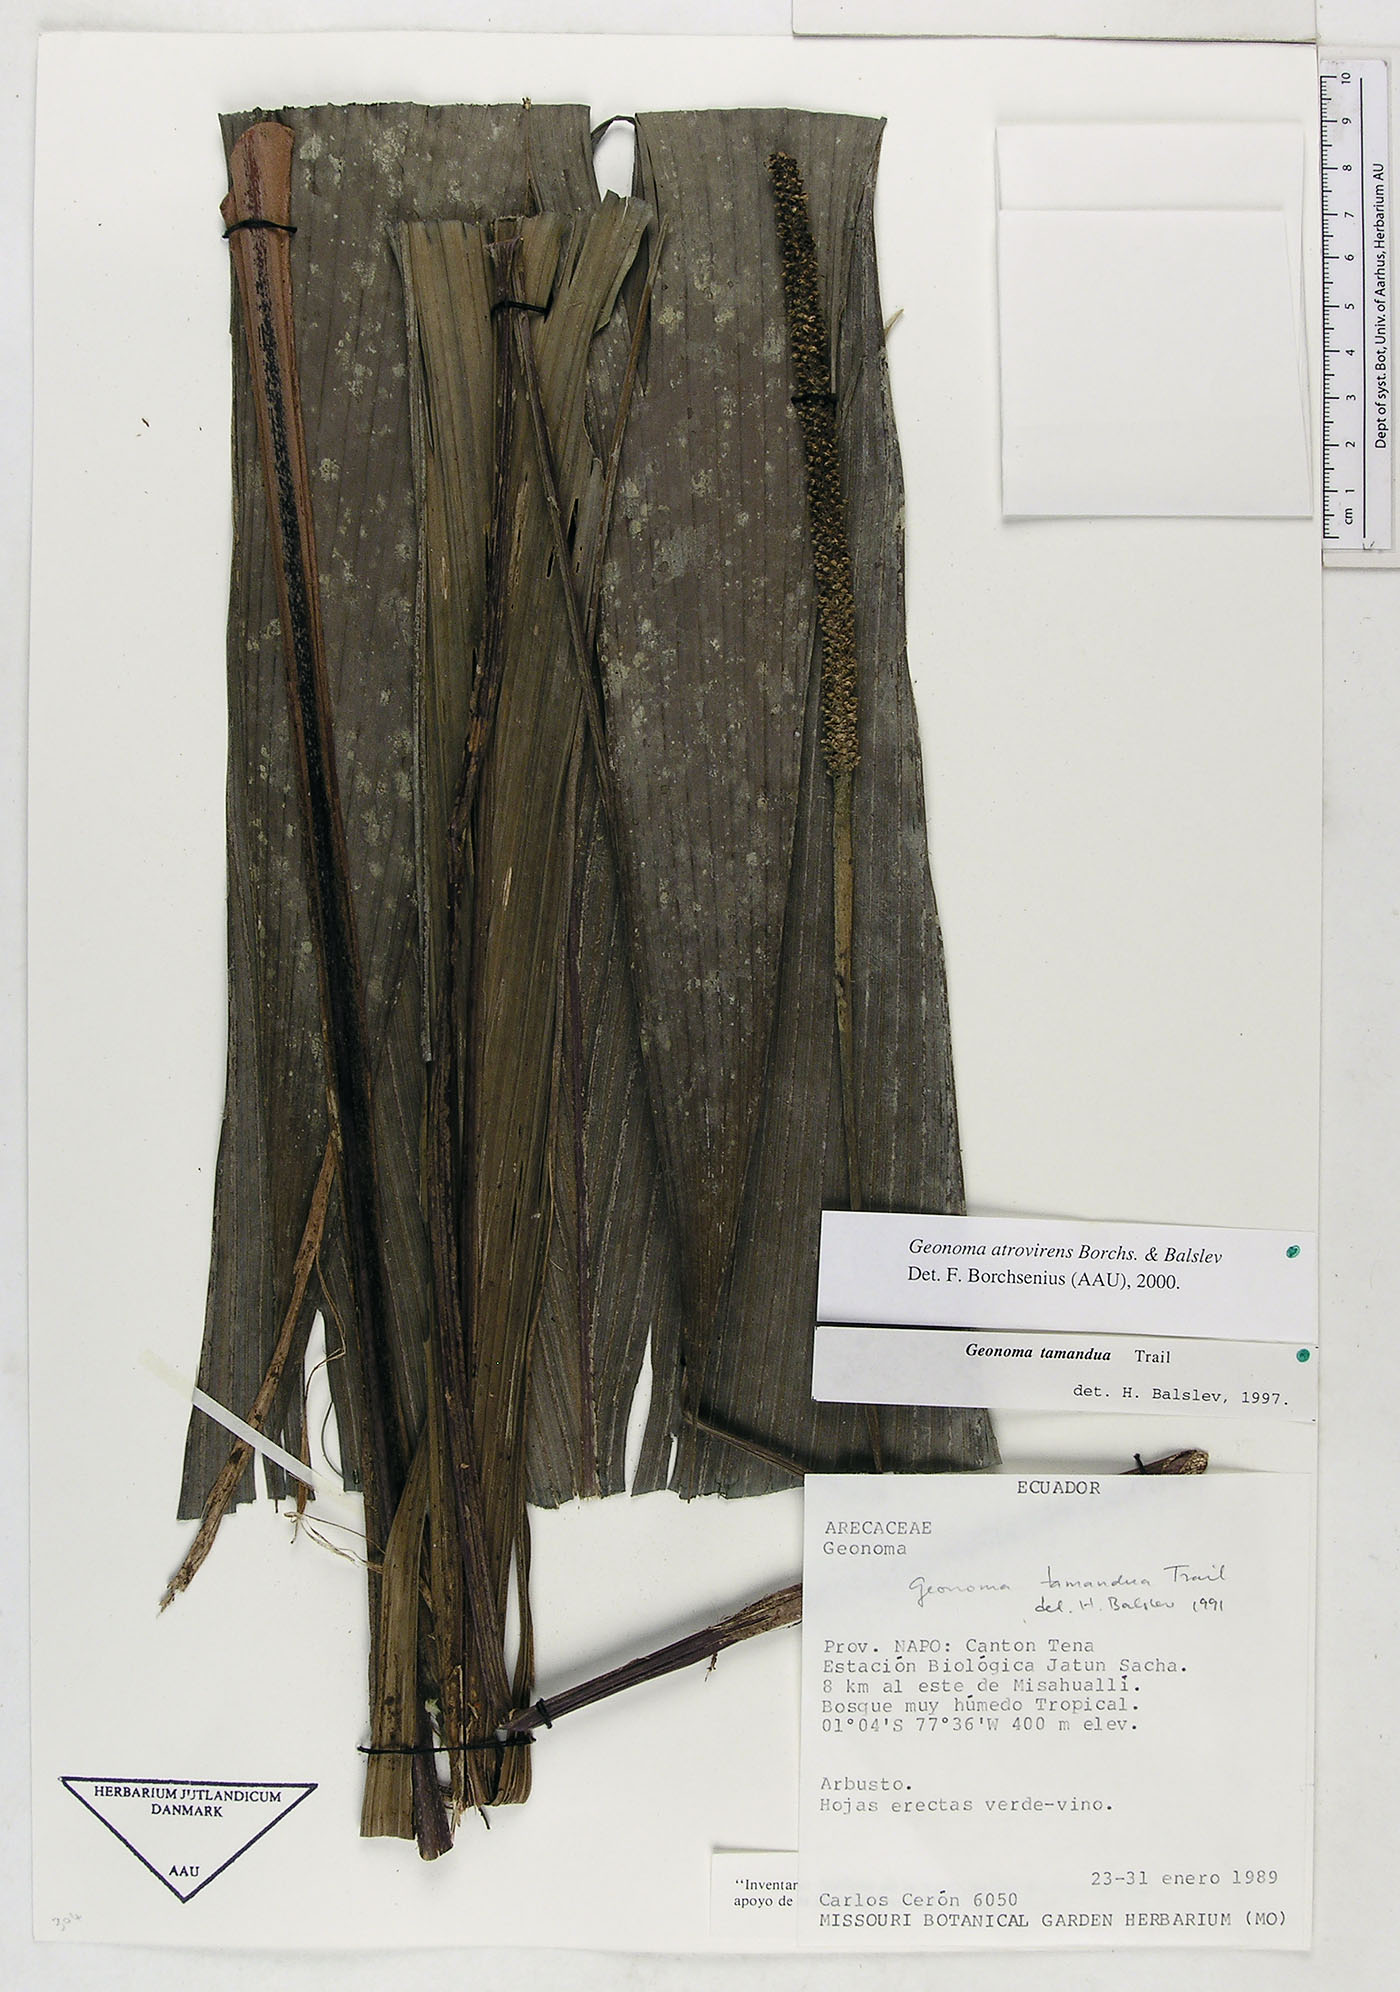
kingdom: Plantae
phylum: Tracheophyta
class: Liliopsida
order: Arecales
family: Arecaceae
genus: Geonoma
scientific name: Geonoma macrostachys
